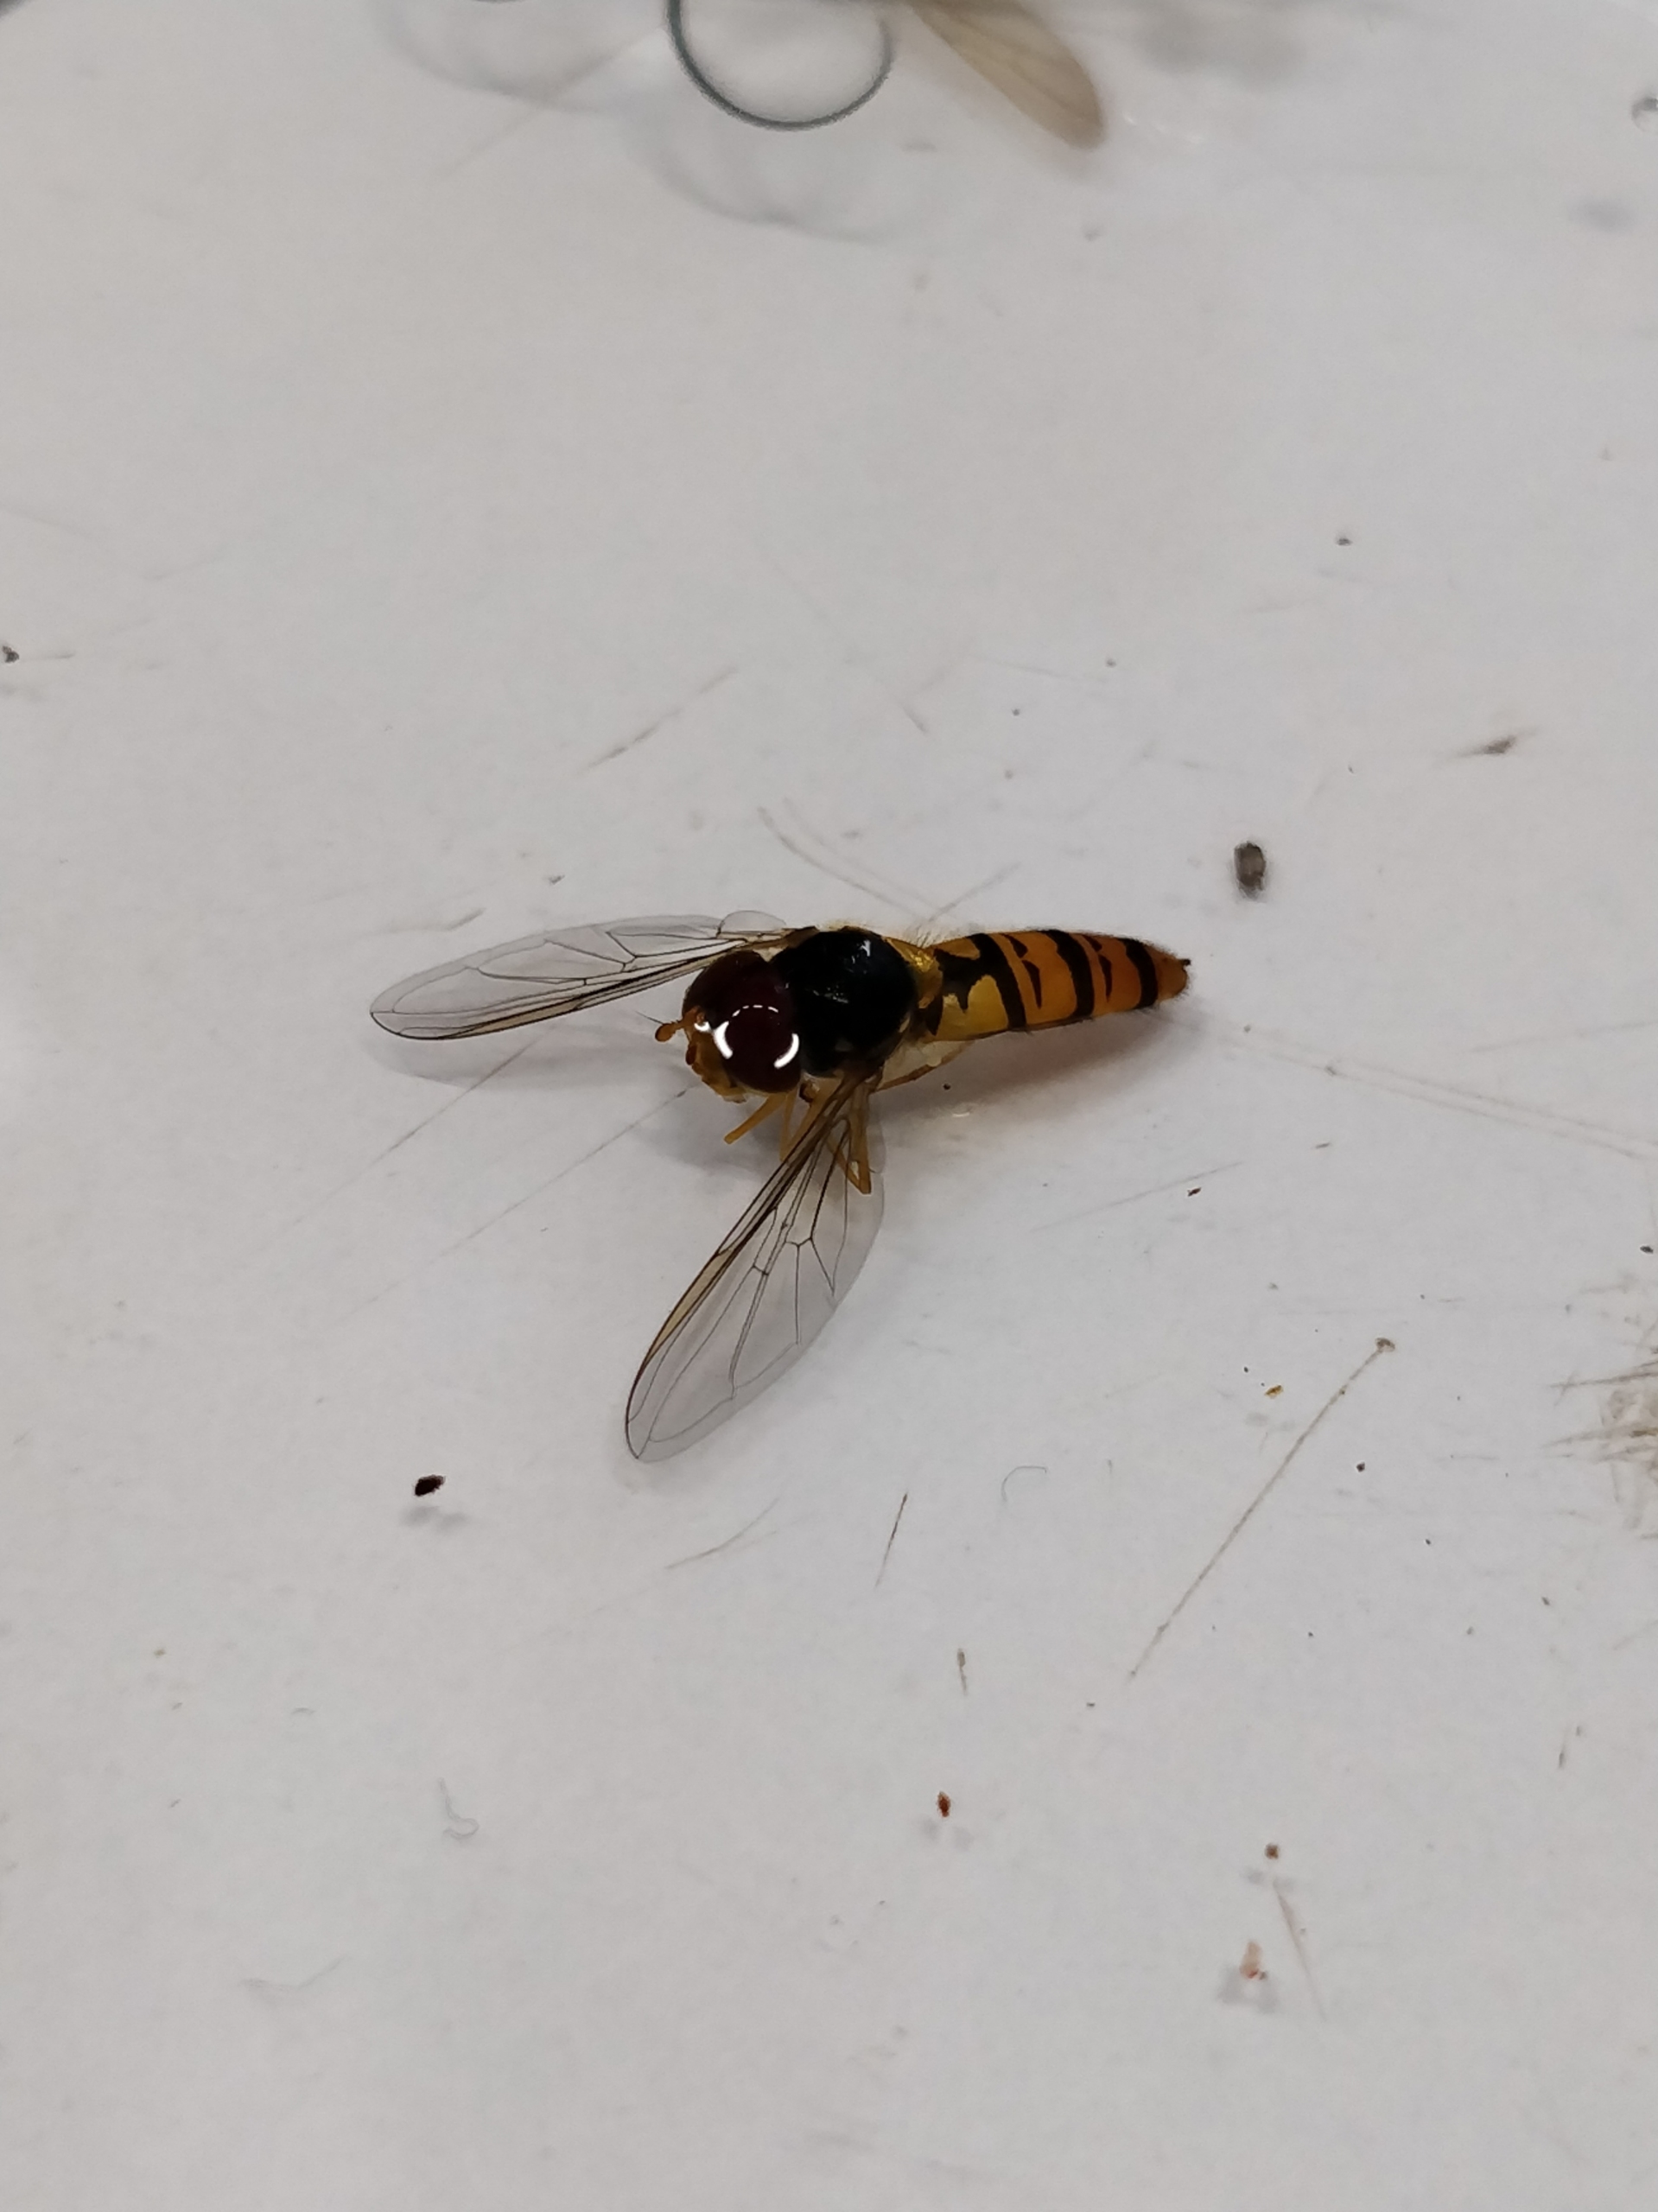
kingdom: Animalia
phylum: Arthropoda
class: Insecta
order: Diptera
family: Syrphidae
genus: Episyrphus
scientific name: Episyrphus balteatus
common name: Dobbeltbåndet svirreflue
